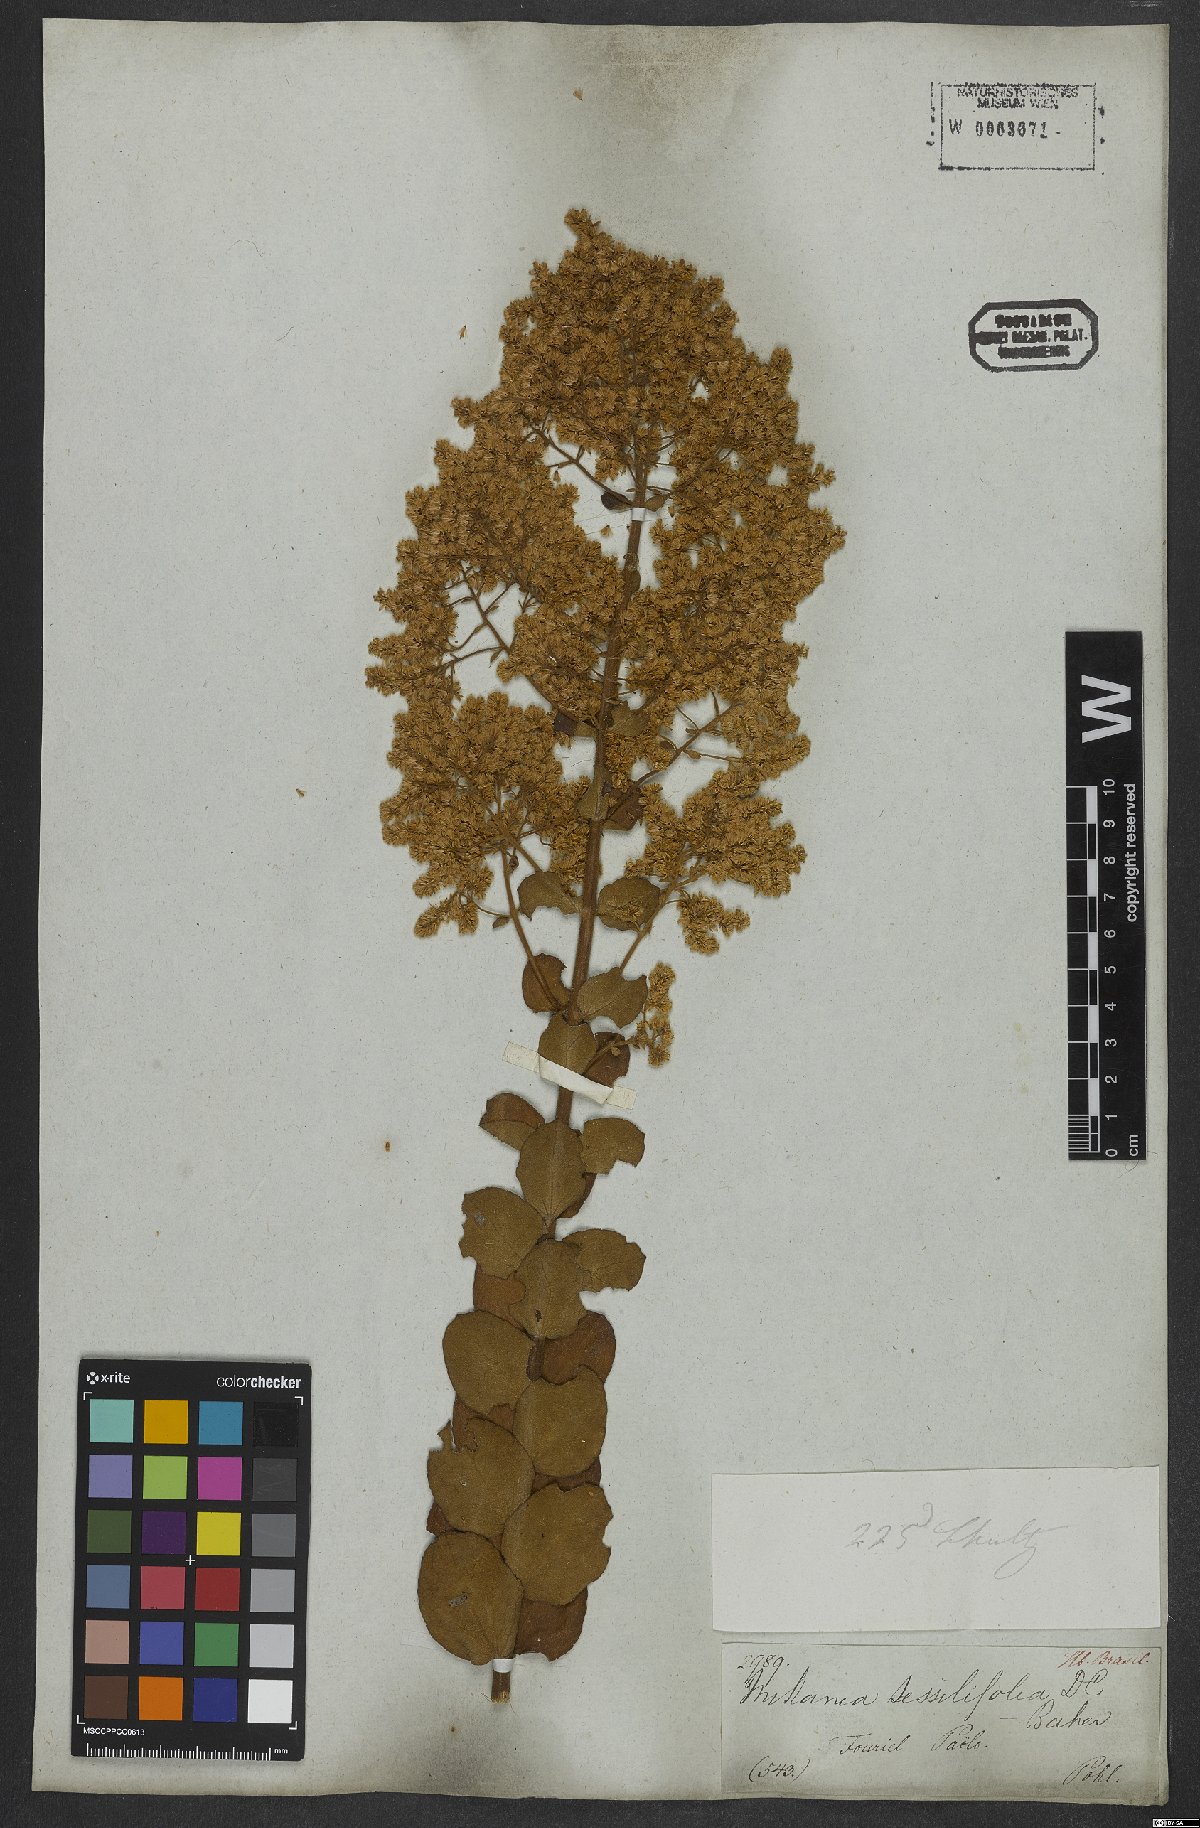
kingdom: Plantae
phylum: Tracheophyta
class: Magnoliopsida
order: Asterales
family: Asteraceae
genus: Mikania
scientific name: Mikania sessilifolia
